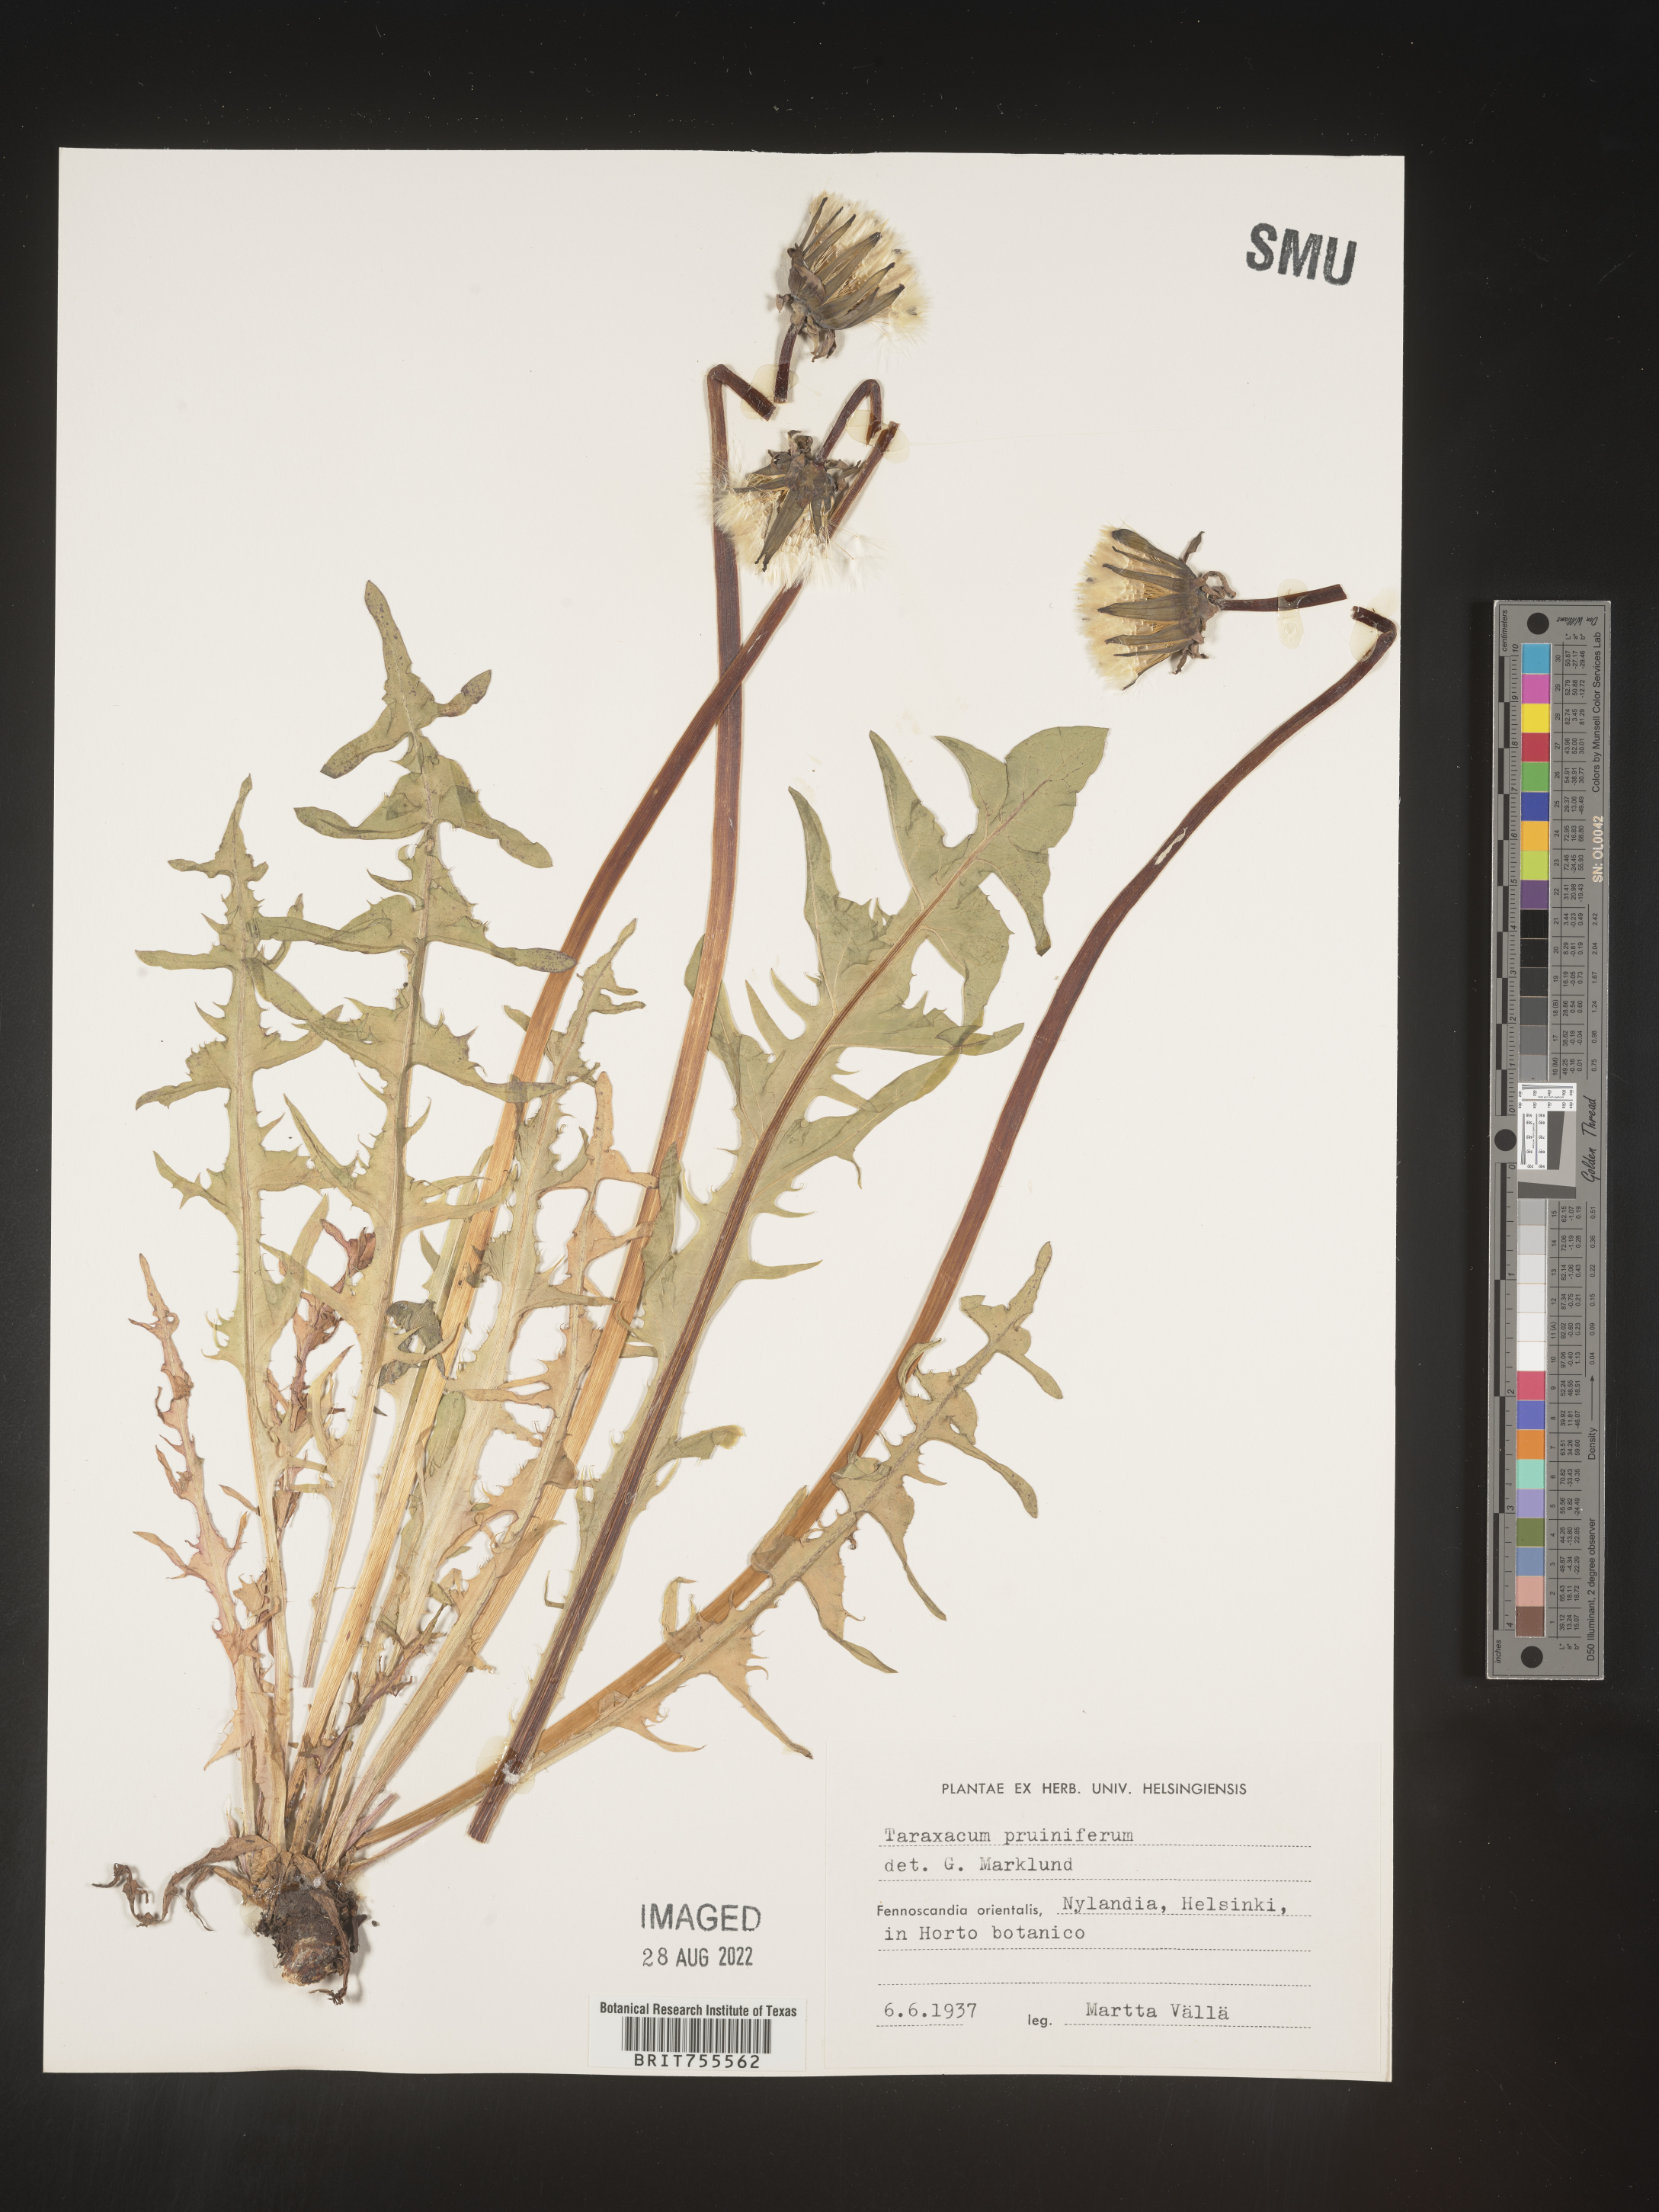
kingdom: Plantae
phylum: Tracheophyta
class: Magnoliopsida
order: Asterales
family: Asteraceae
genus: Taraxacum
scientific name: Taraxacum
